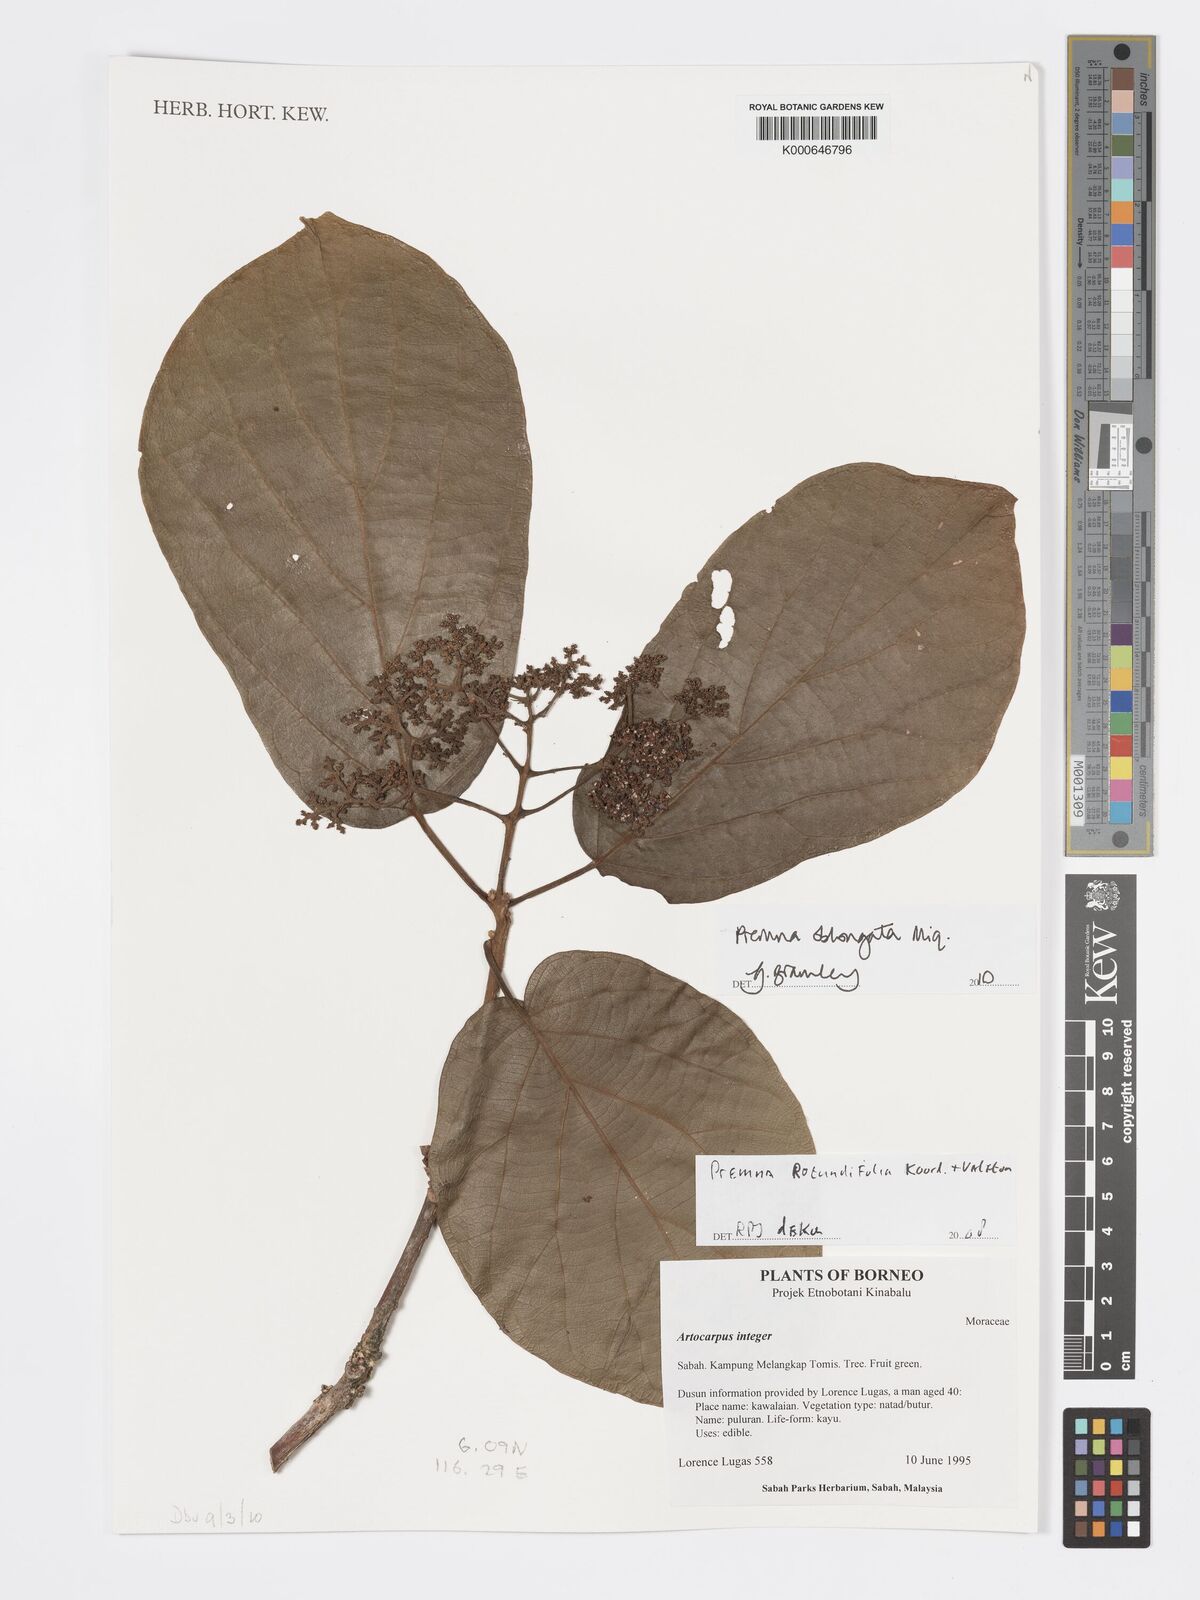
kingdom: Plantae
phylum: Tracheophyta
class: Magnoliopsida
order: Lamiales
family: Lamiaceae
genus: Premna
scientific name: Premna oblongata
